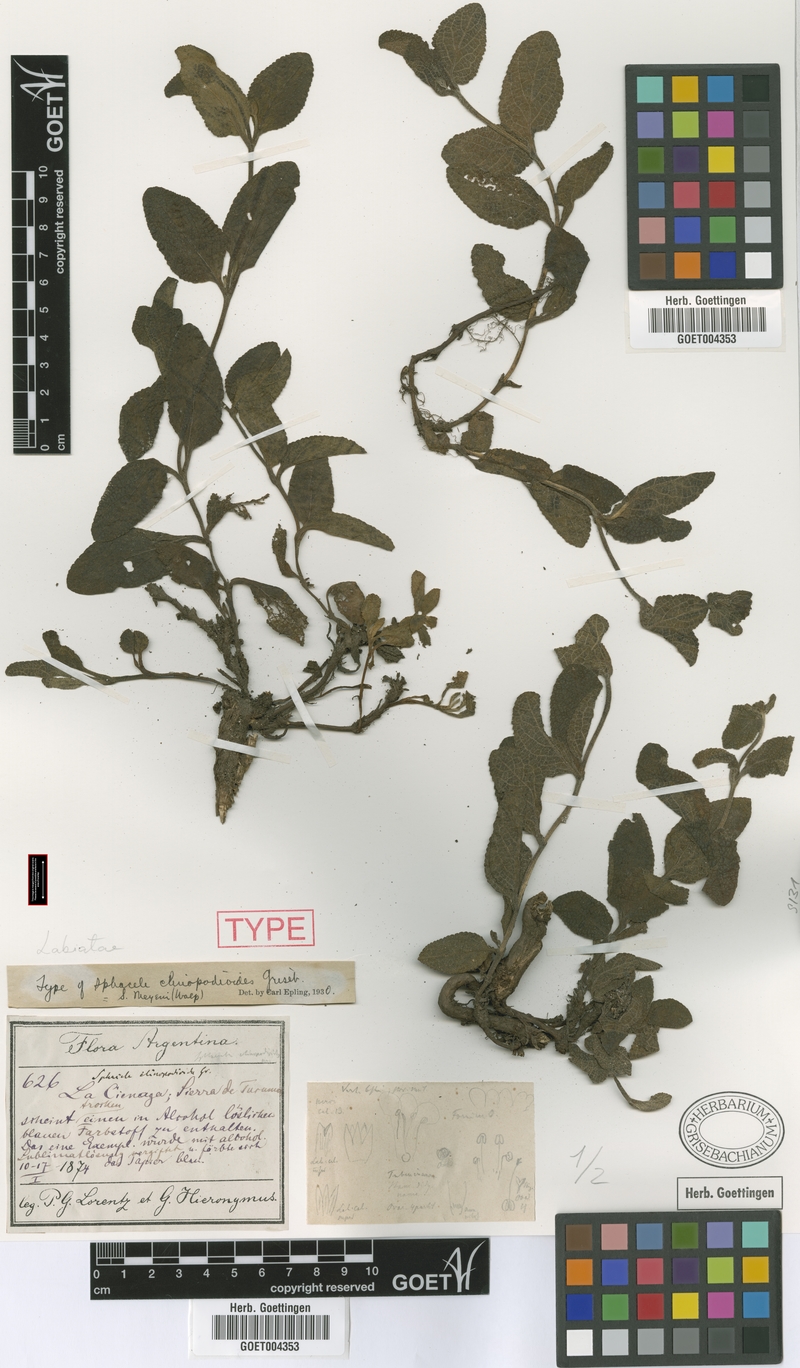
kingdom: Plantae
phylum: Tracheophyta
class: Magnoliopsida
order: Lamiales
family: Lamiaceae
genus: Lepechinia
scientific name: Lepechinia meyenii
